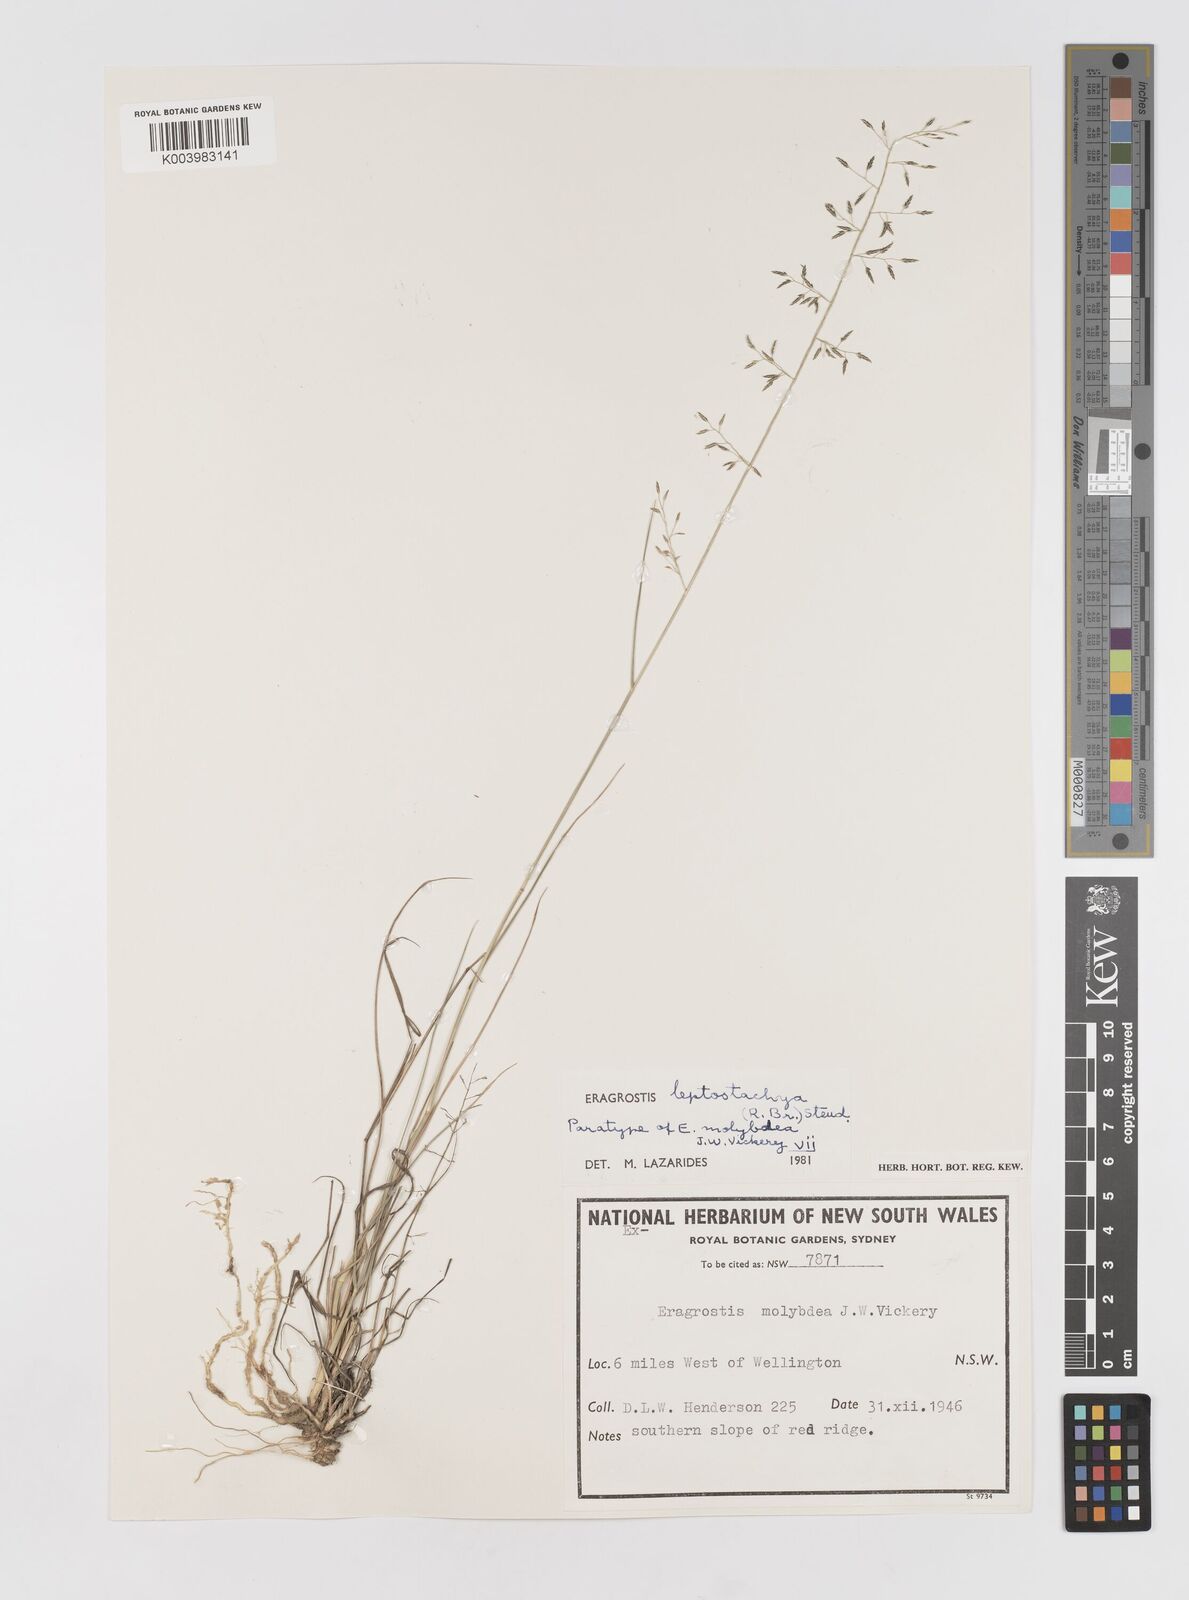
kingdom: Plantae
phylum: Tracheophyta
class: Liliopsida
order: Poales
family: Poaceae
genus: Eragrostis
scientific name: Eragrostis leptostachya
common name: Australian lovegrass
